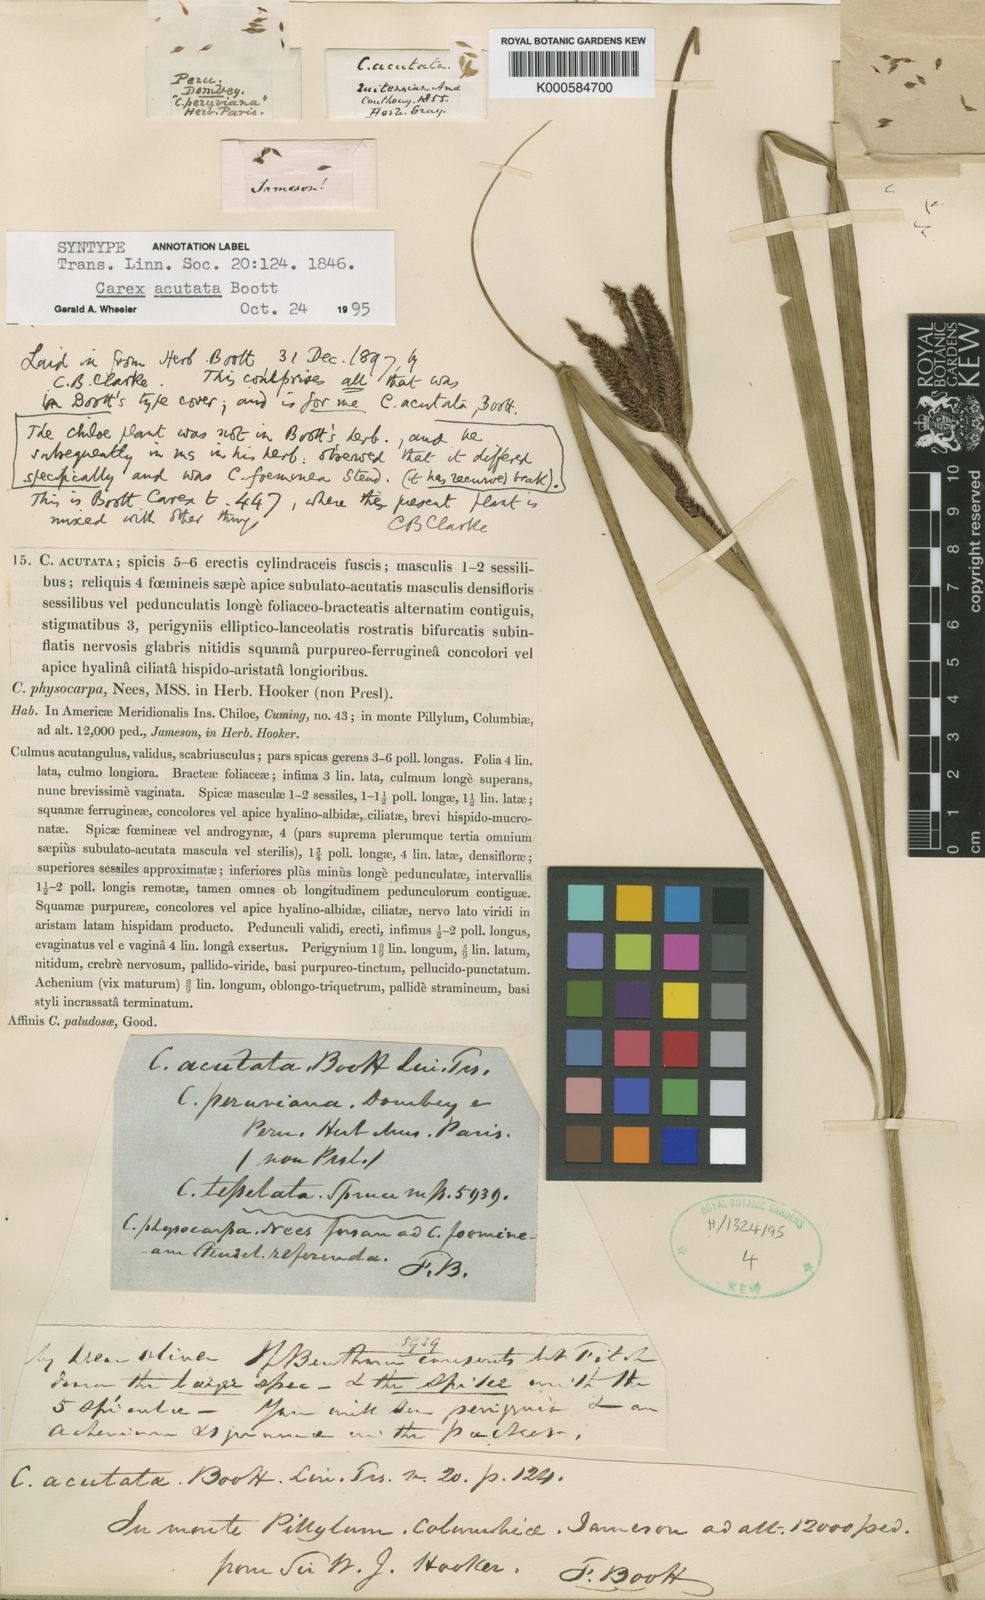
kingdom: Plantae
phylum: Tracheophyta
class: Liliopsida
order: Poales
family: Cyperaceae
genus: Carex
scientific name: Carex acutata
